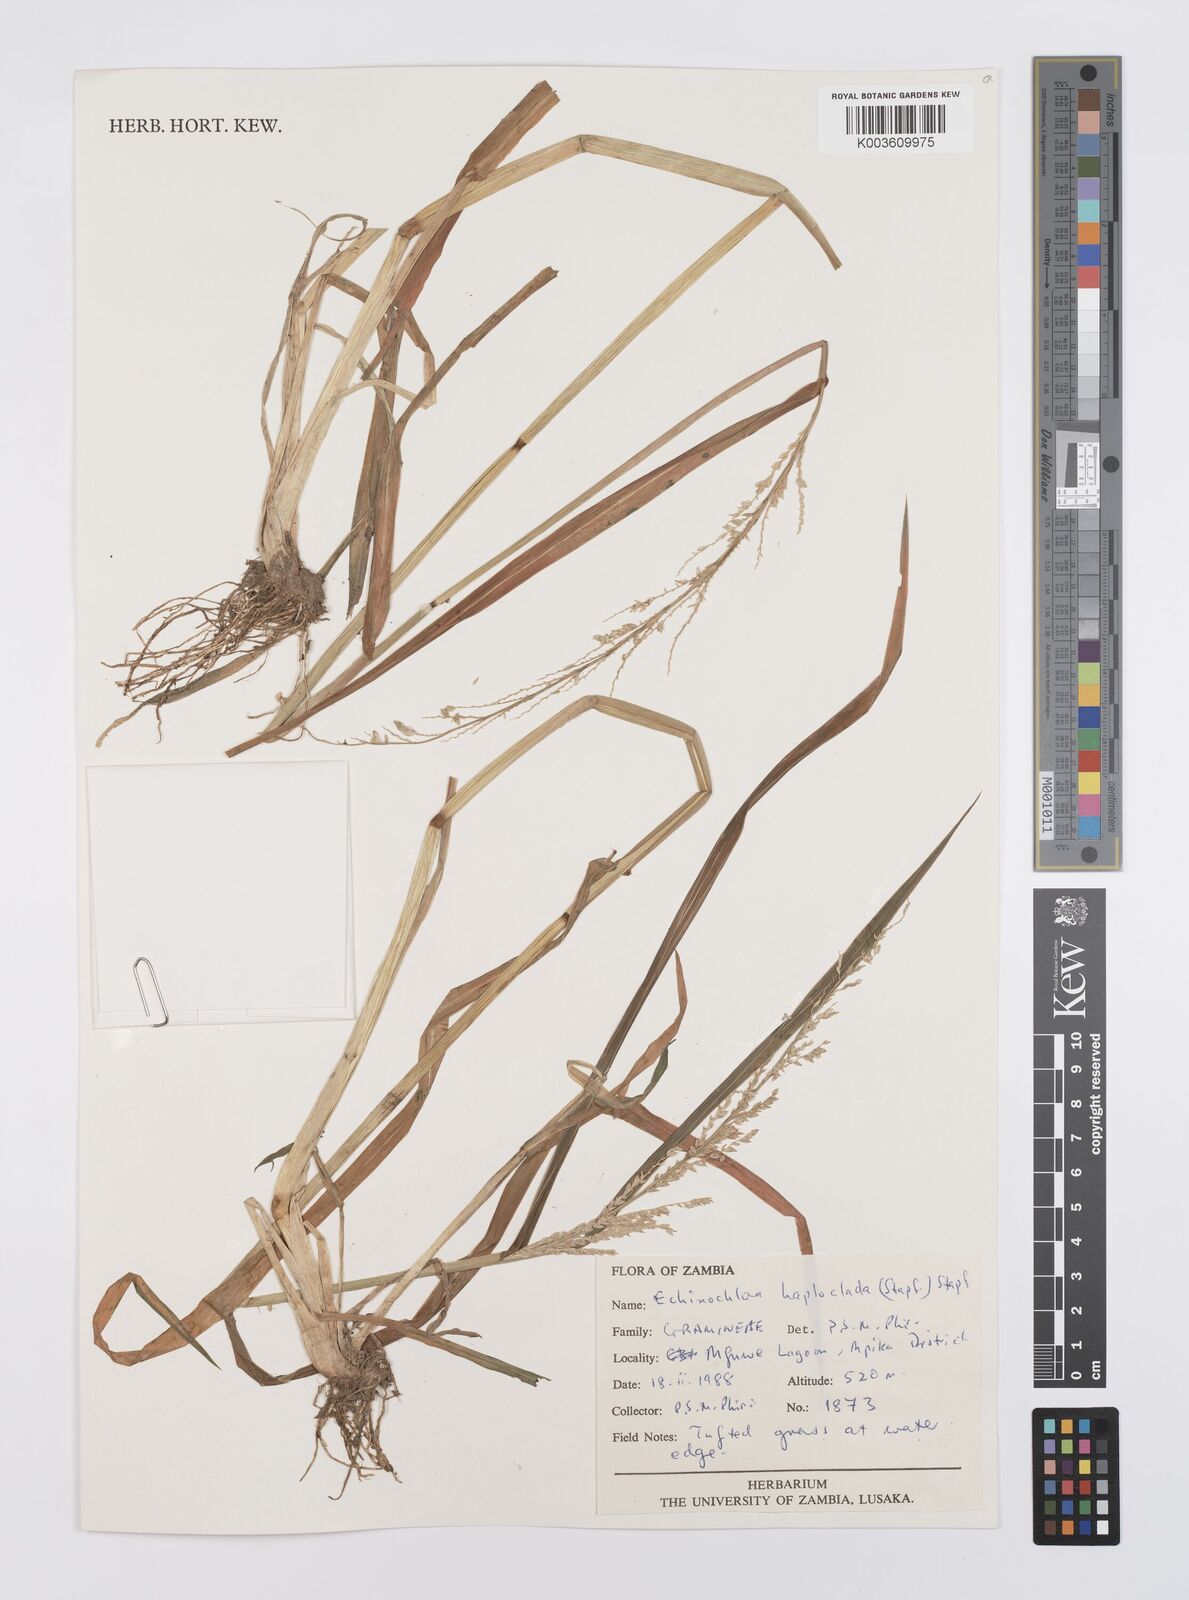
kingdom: Plantae
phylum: Tracheophyta
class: Liliopsida
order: Poales
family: Poaceae
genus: Echinochloa
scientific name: Echinochloa haploclada
